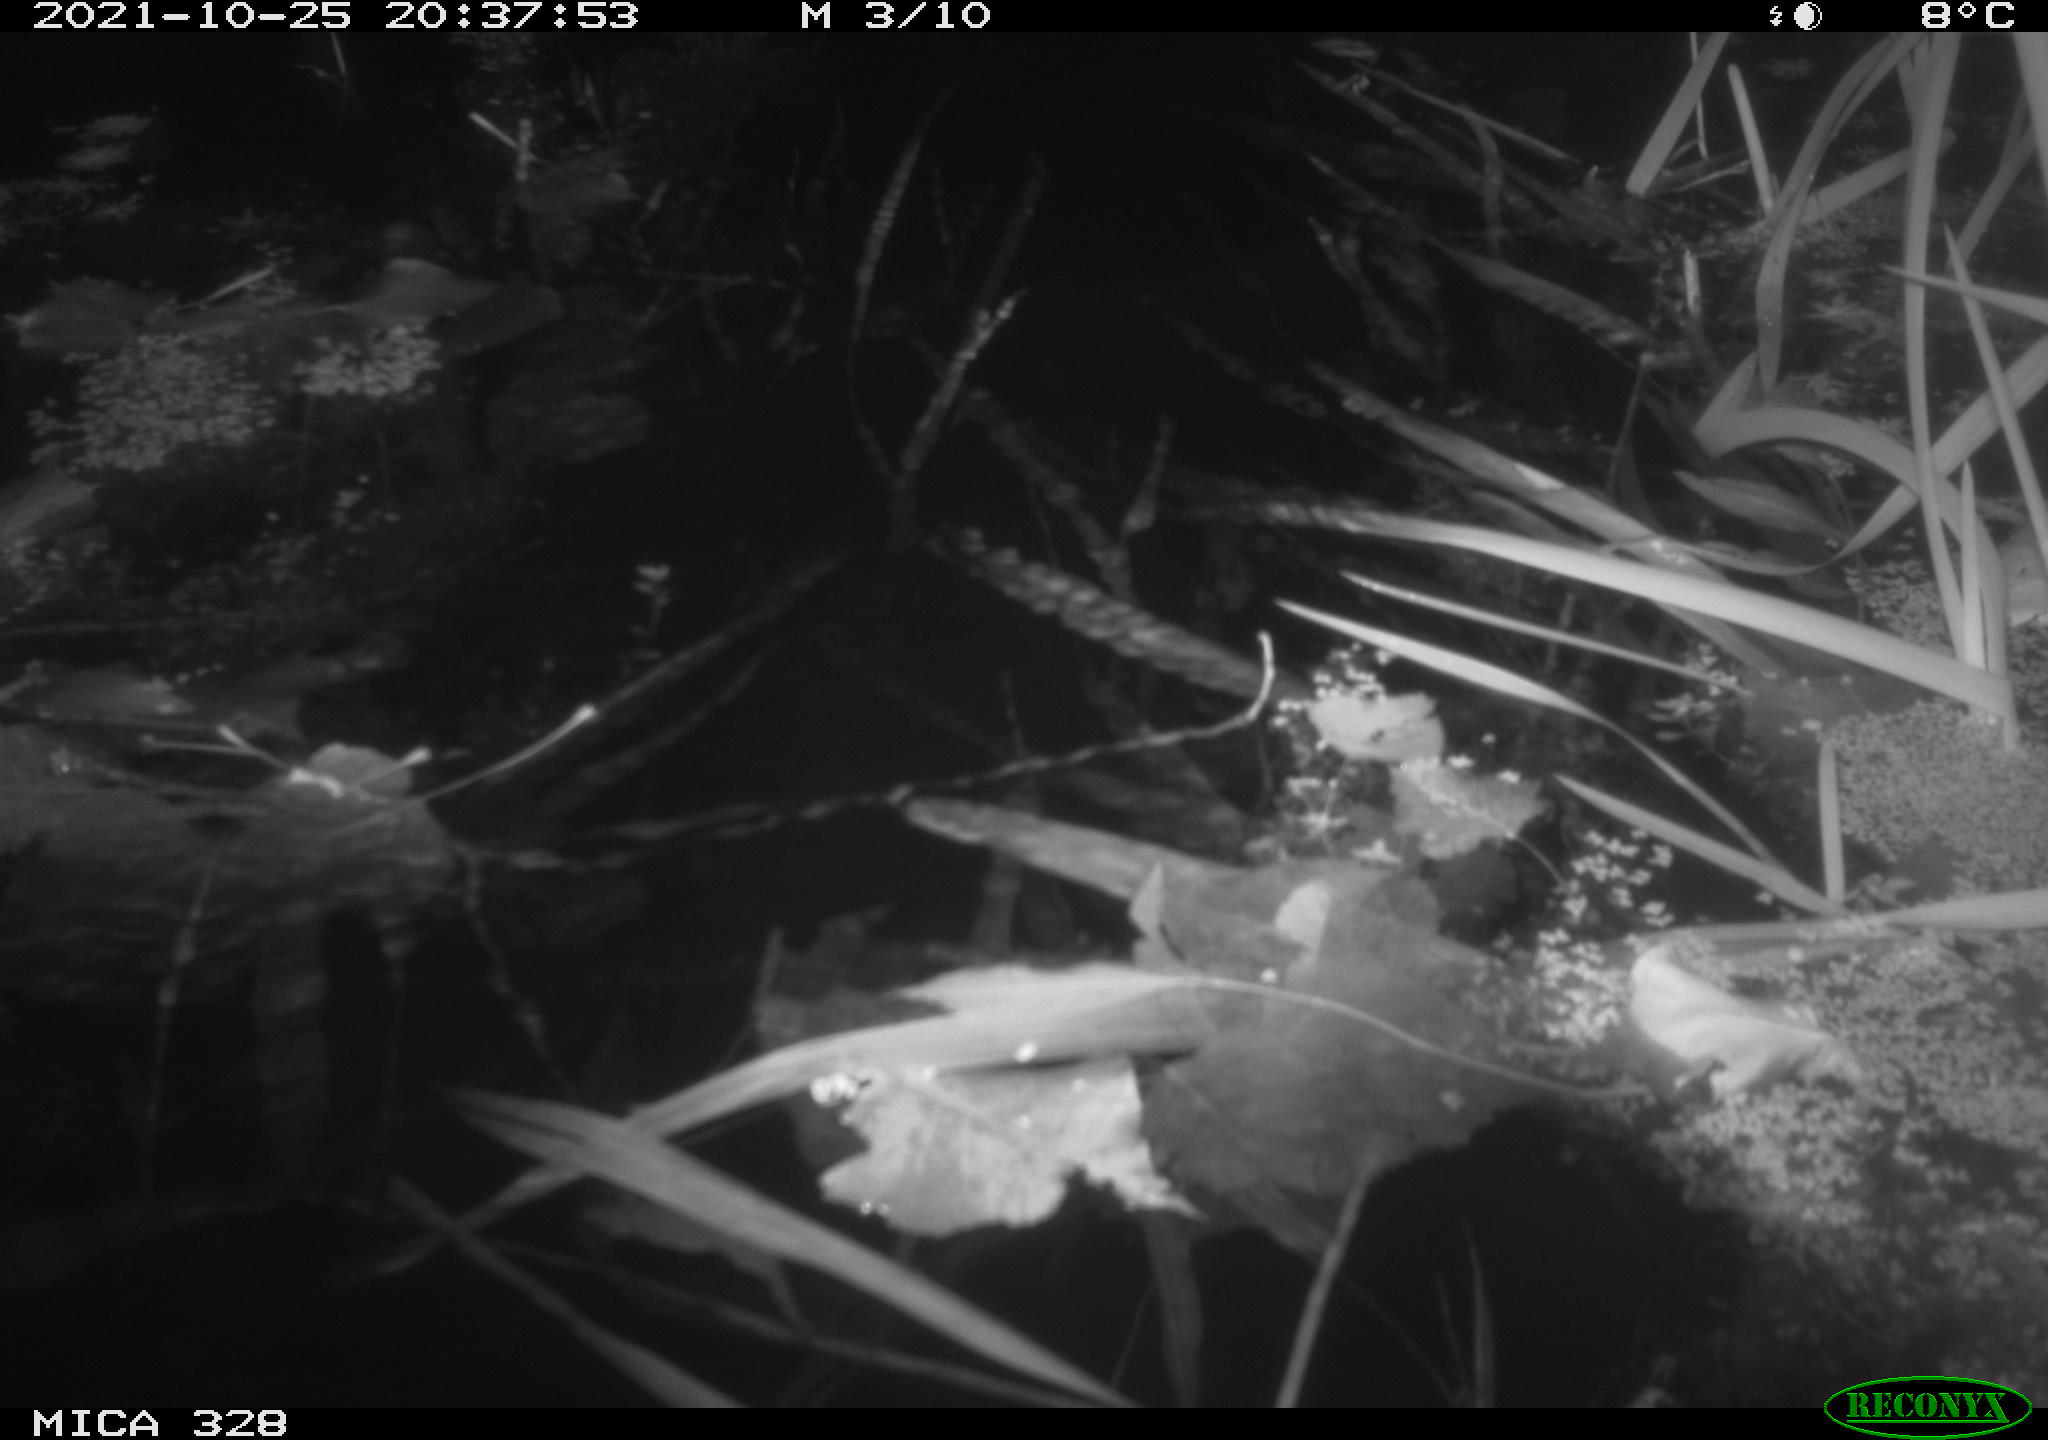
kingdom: Animalia
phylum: Chordata
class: Mammalia
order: Rodentia
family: Cricetidae
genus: Ondatra
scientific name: Ondatra zibethicus
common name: Muskrat
